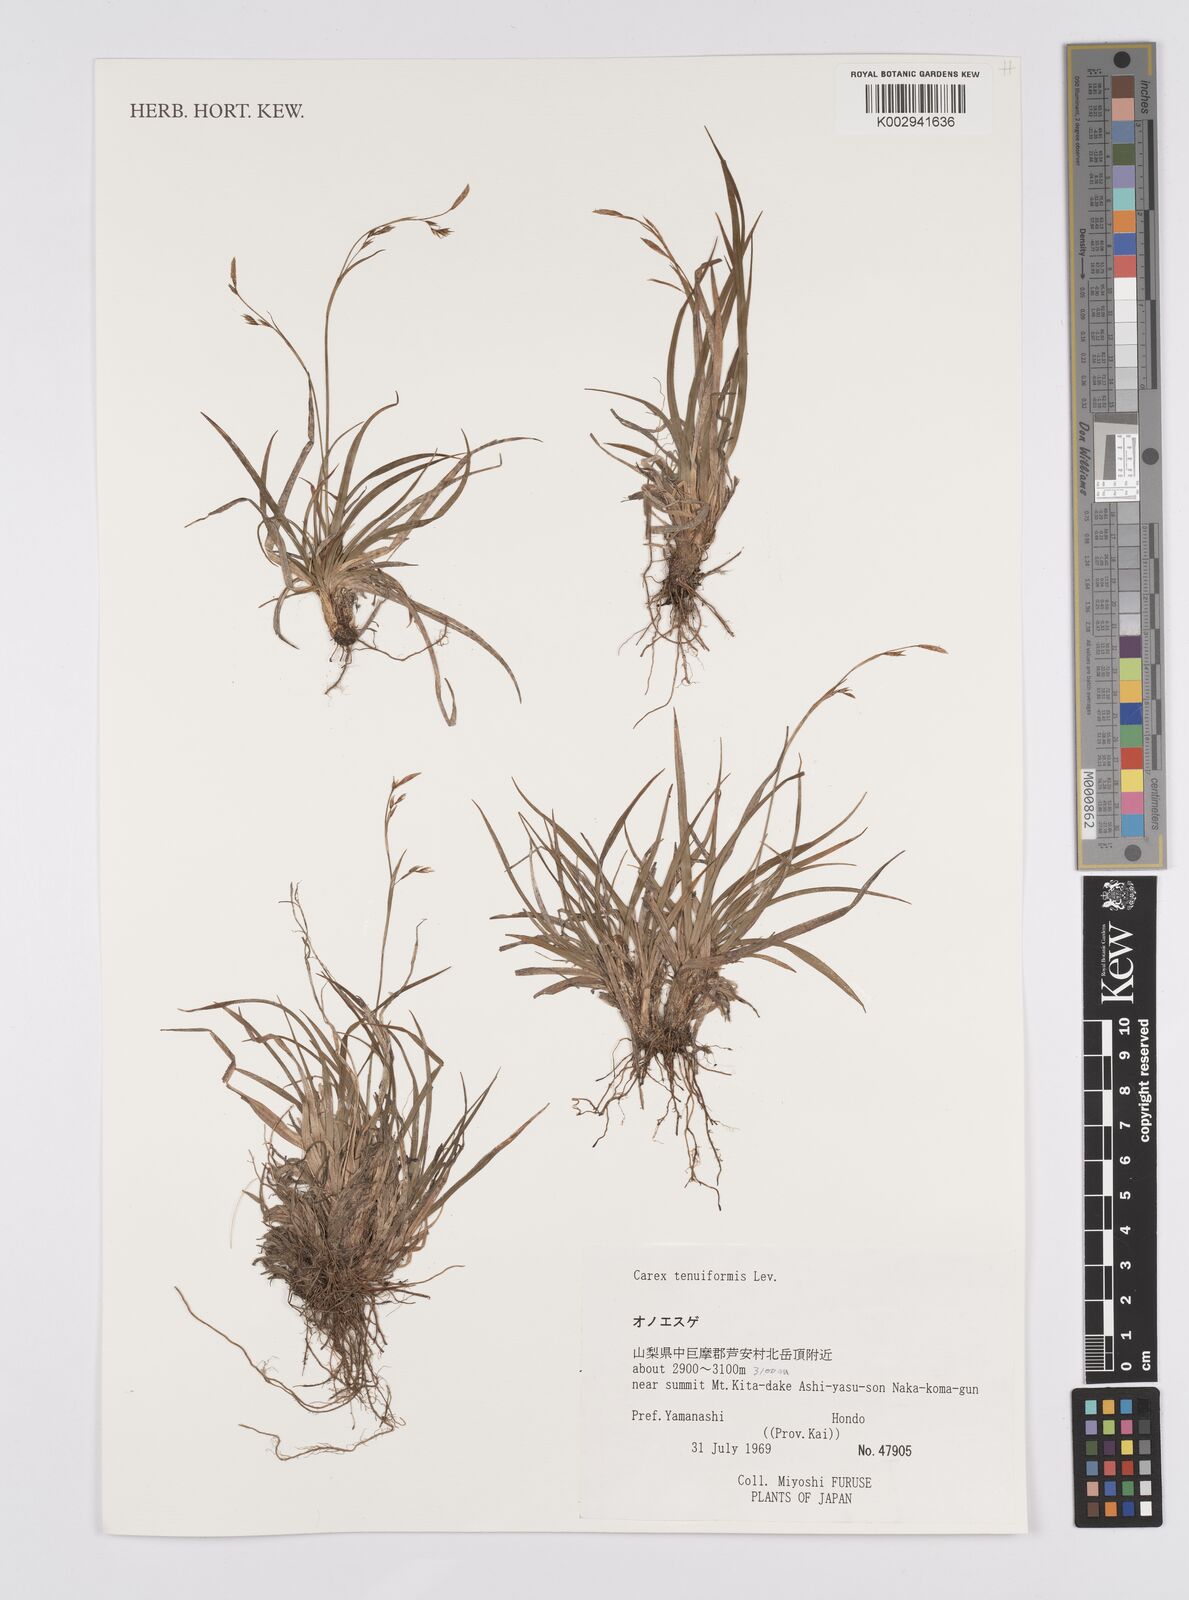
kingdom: Plantae
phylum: Tracheophyta
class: Liliopsida
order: Poales
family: Cyperaceae
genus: Carex
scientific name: Carex tenuiformis
